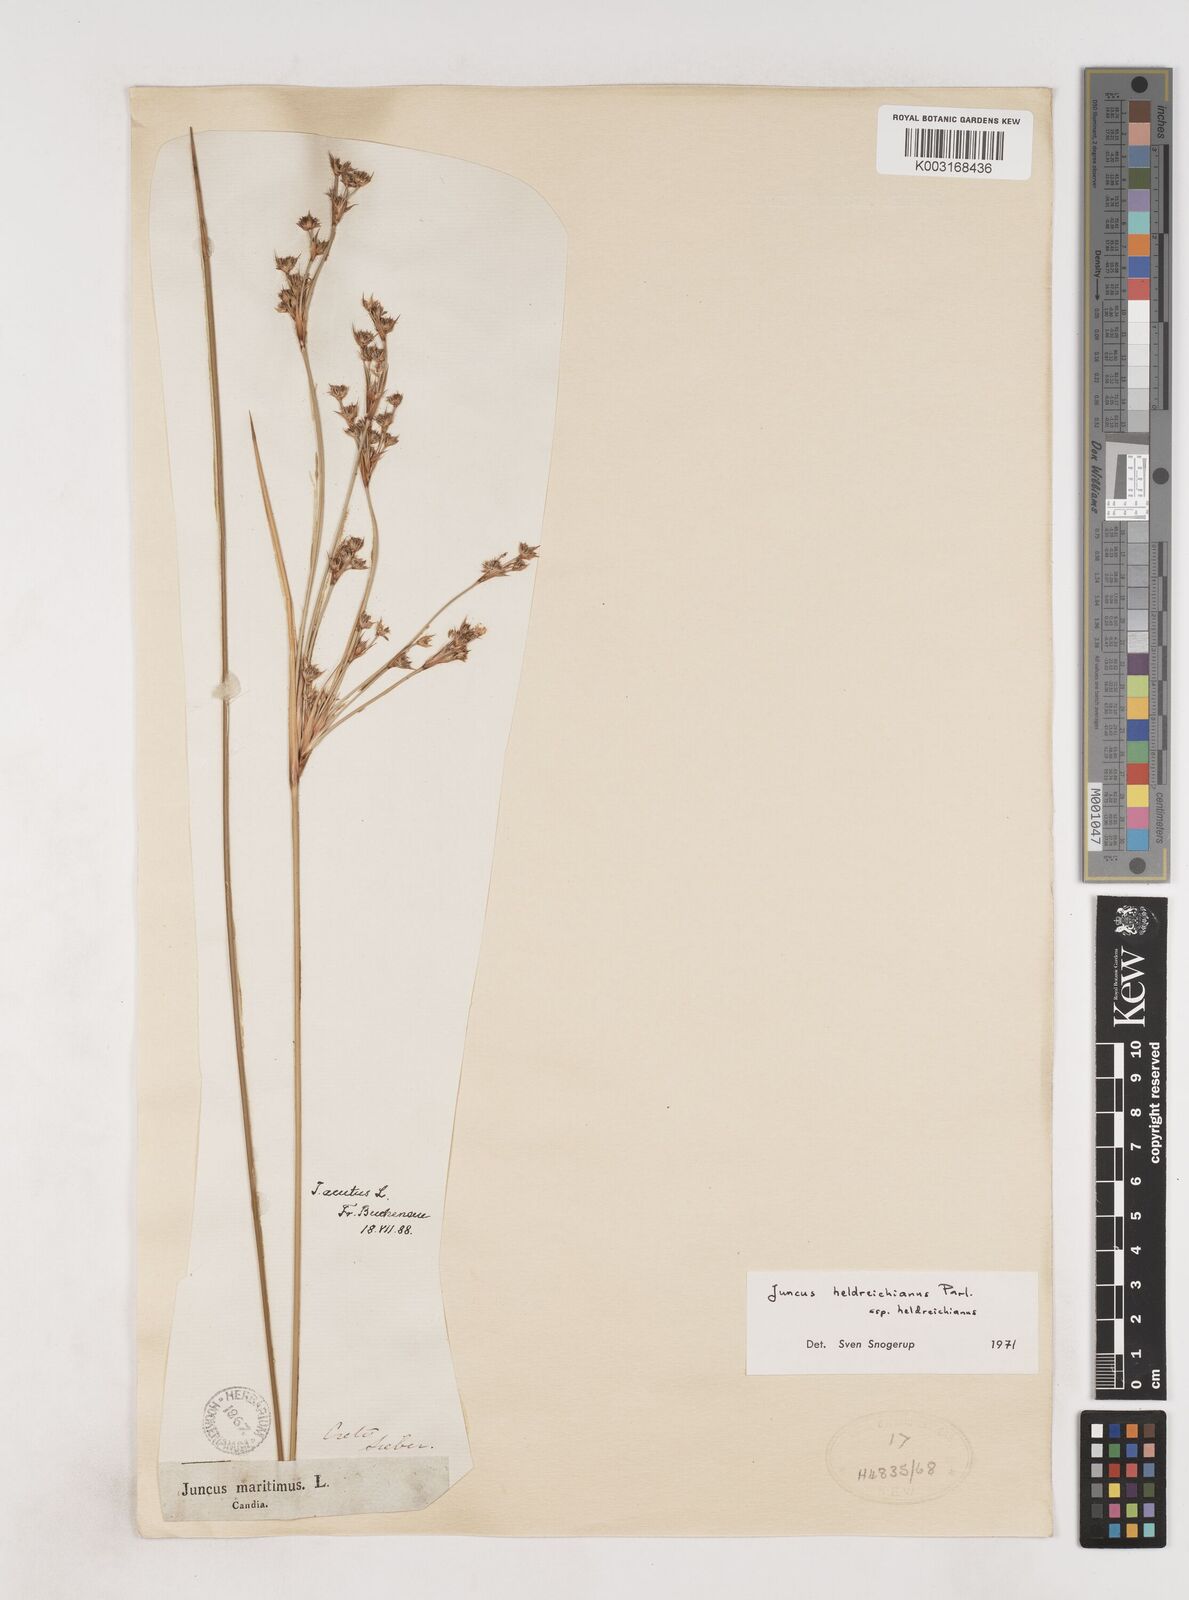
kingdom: Plantae
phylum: Tracheophyta
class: Liliopsida
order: Poales
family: Juncaceae
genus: Juncus
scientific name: Juncus heldreichianus
